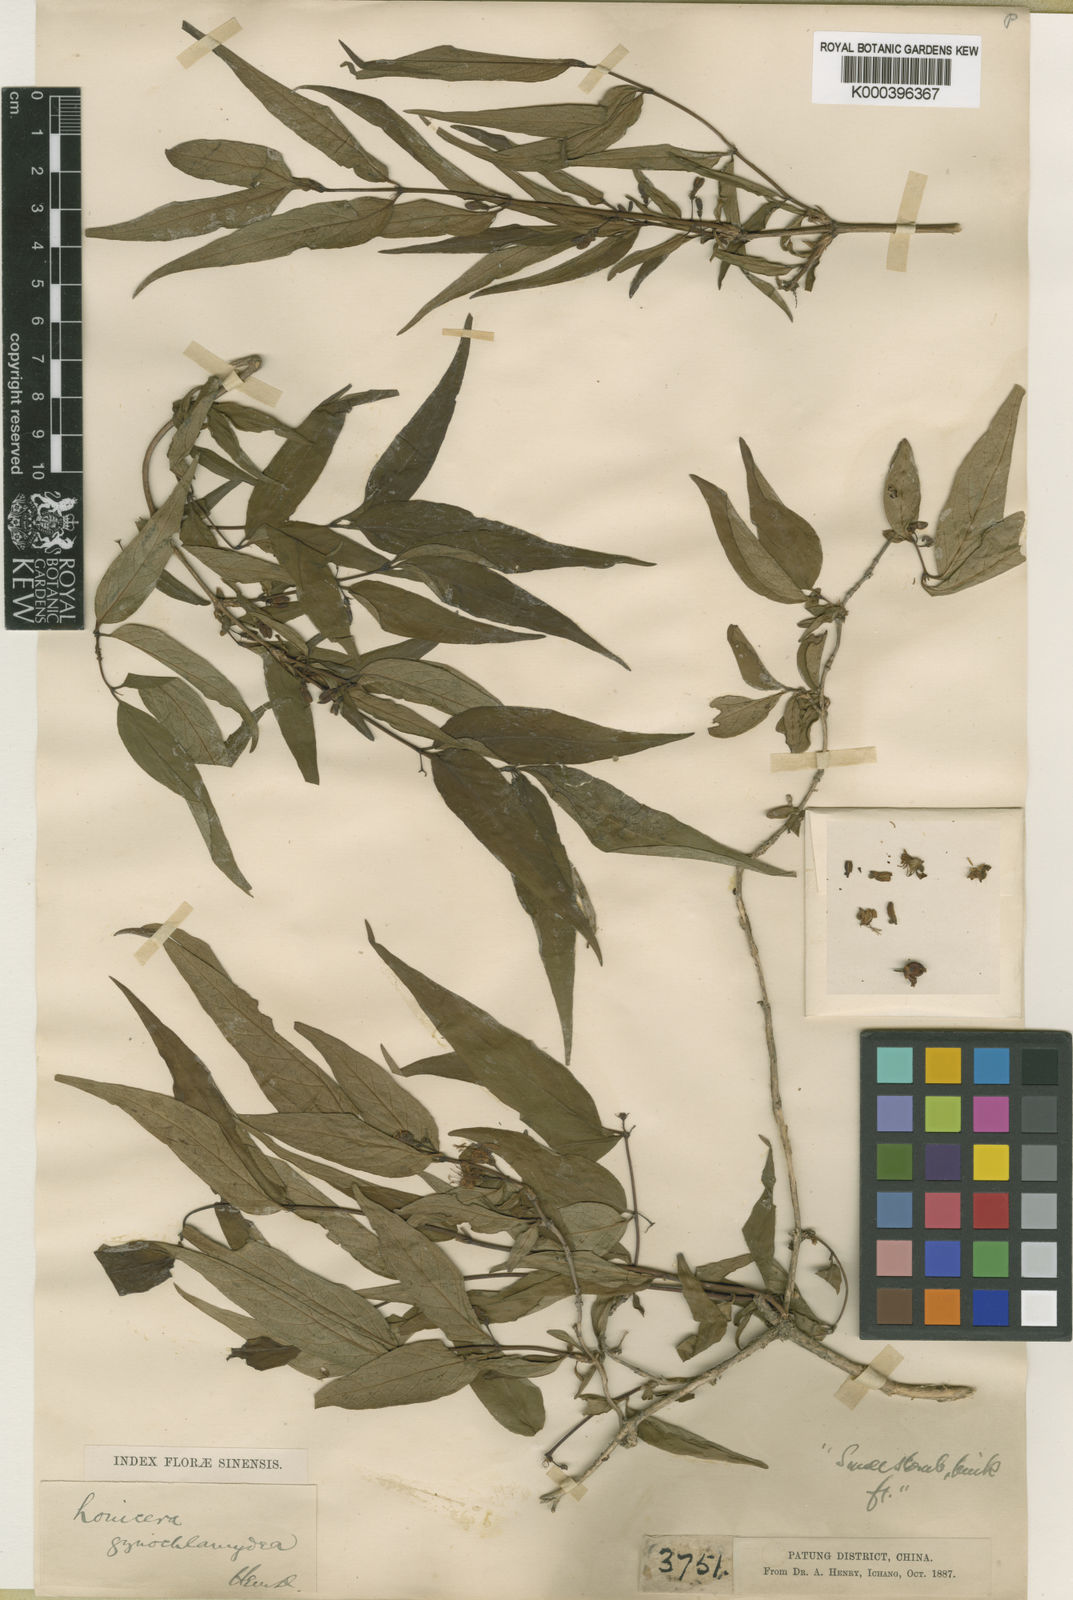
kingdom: Plantae
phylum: Tracheophyta
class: Magnoliopsida
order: Dipsacales
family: Caprifoliaceae
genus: Lonicera
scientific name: Lonicera gynochlamydea
